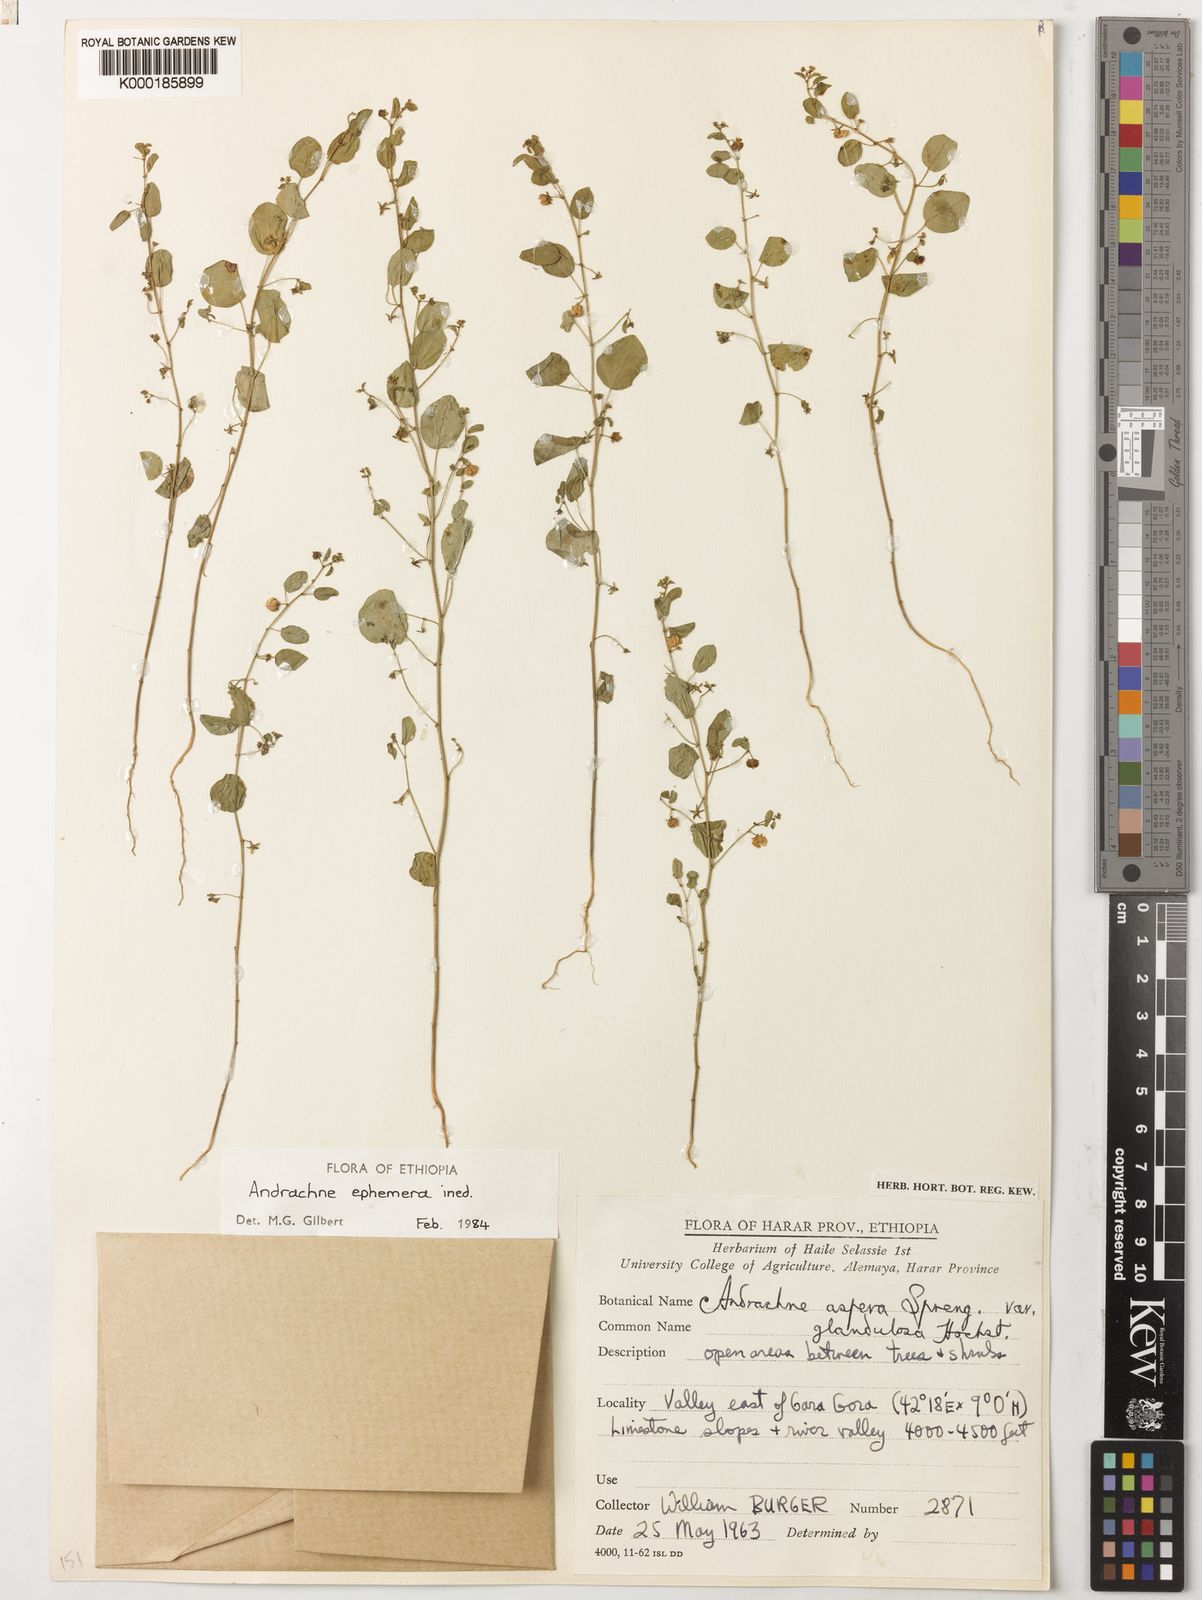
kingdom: Plantae
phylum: Tracheophyta
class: Magnoliopsida
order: Malpighiales
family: Phyllanthaceae
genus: Andrachne
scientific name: Andrachne ephemera
